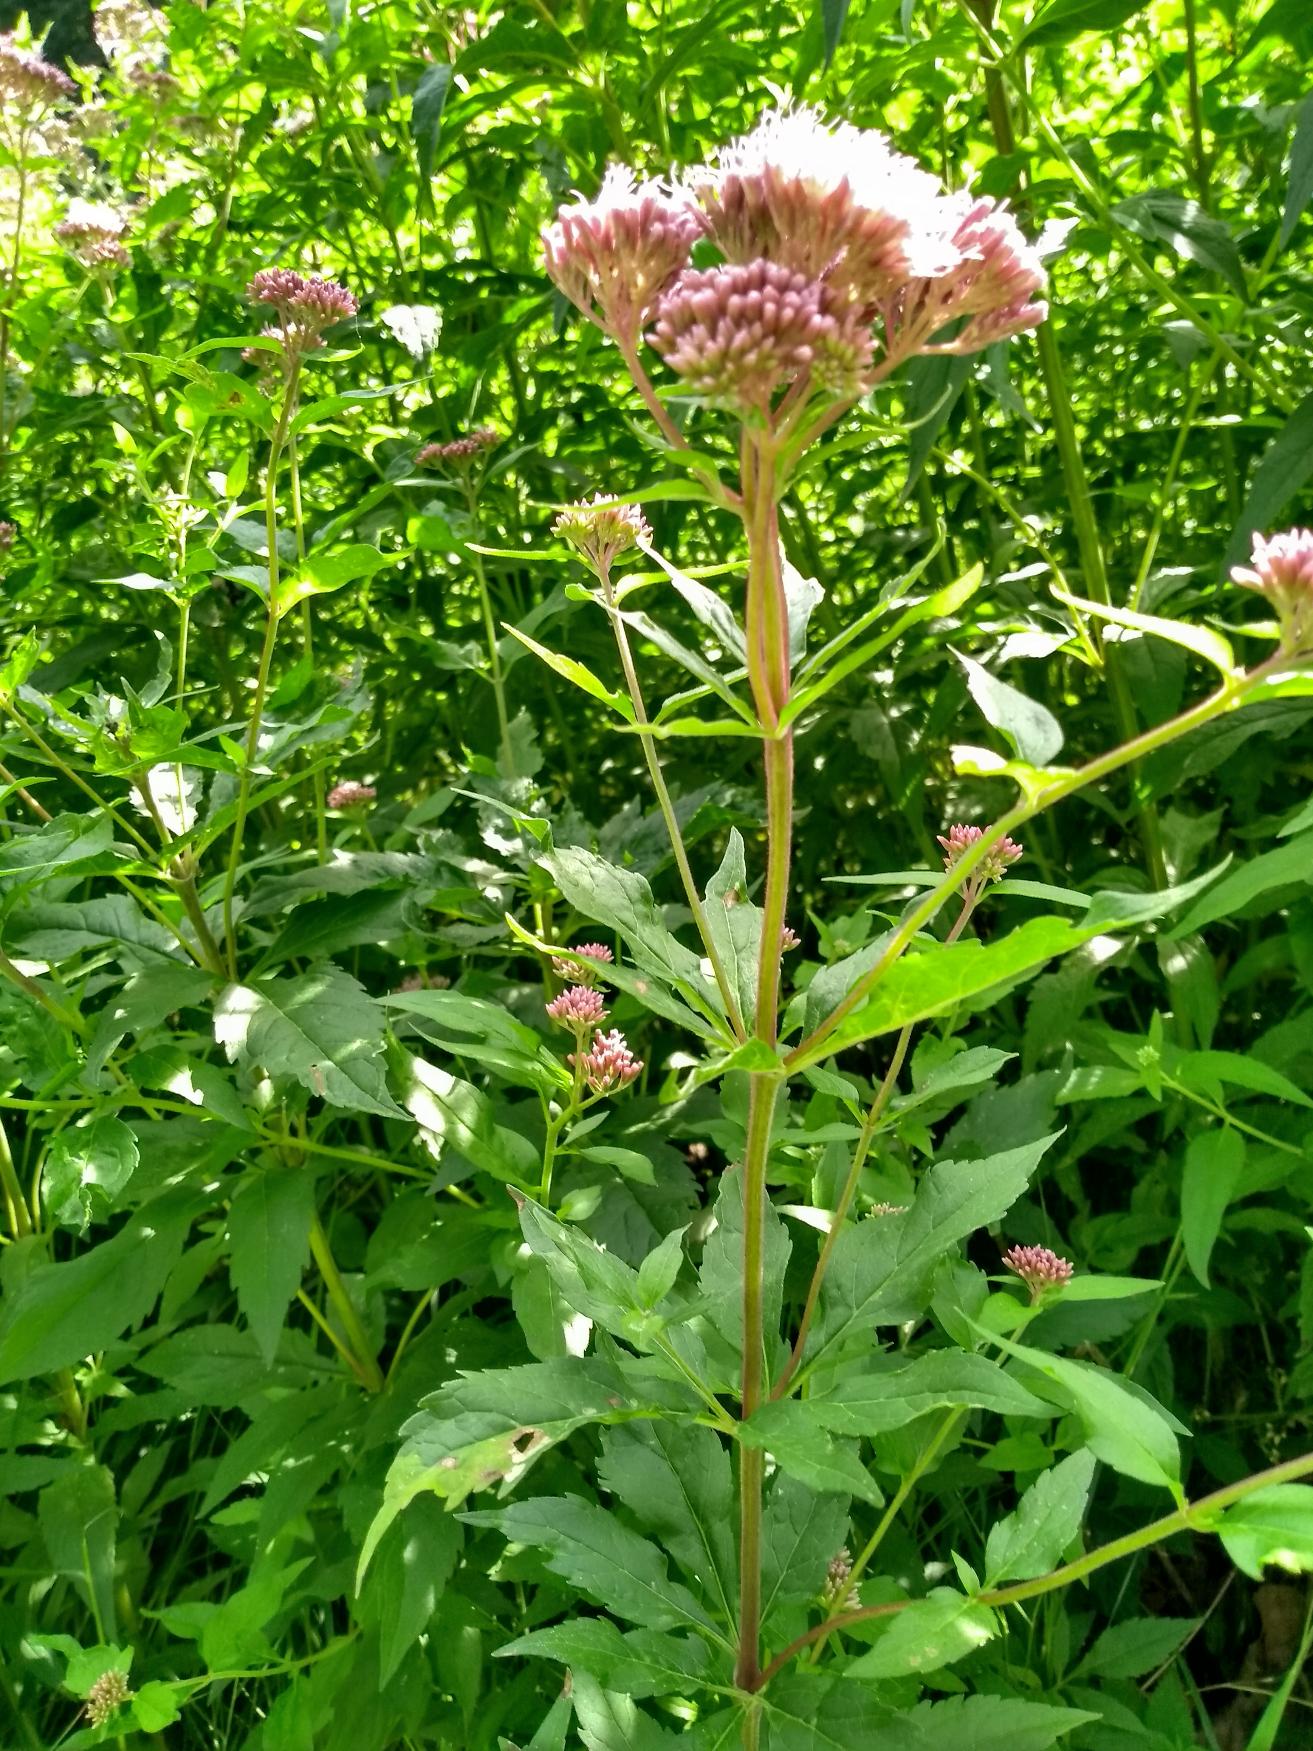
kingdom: Plantae
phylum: Tracheophyta
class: Magnoliopsida
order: Asterales
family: Asteraceae
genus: Eupatorium
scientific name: Eupatorium cannabinum
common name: Hjortetrøst
